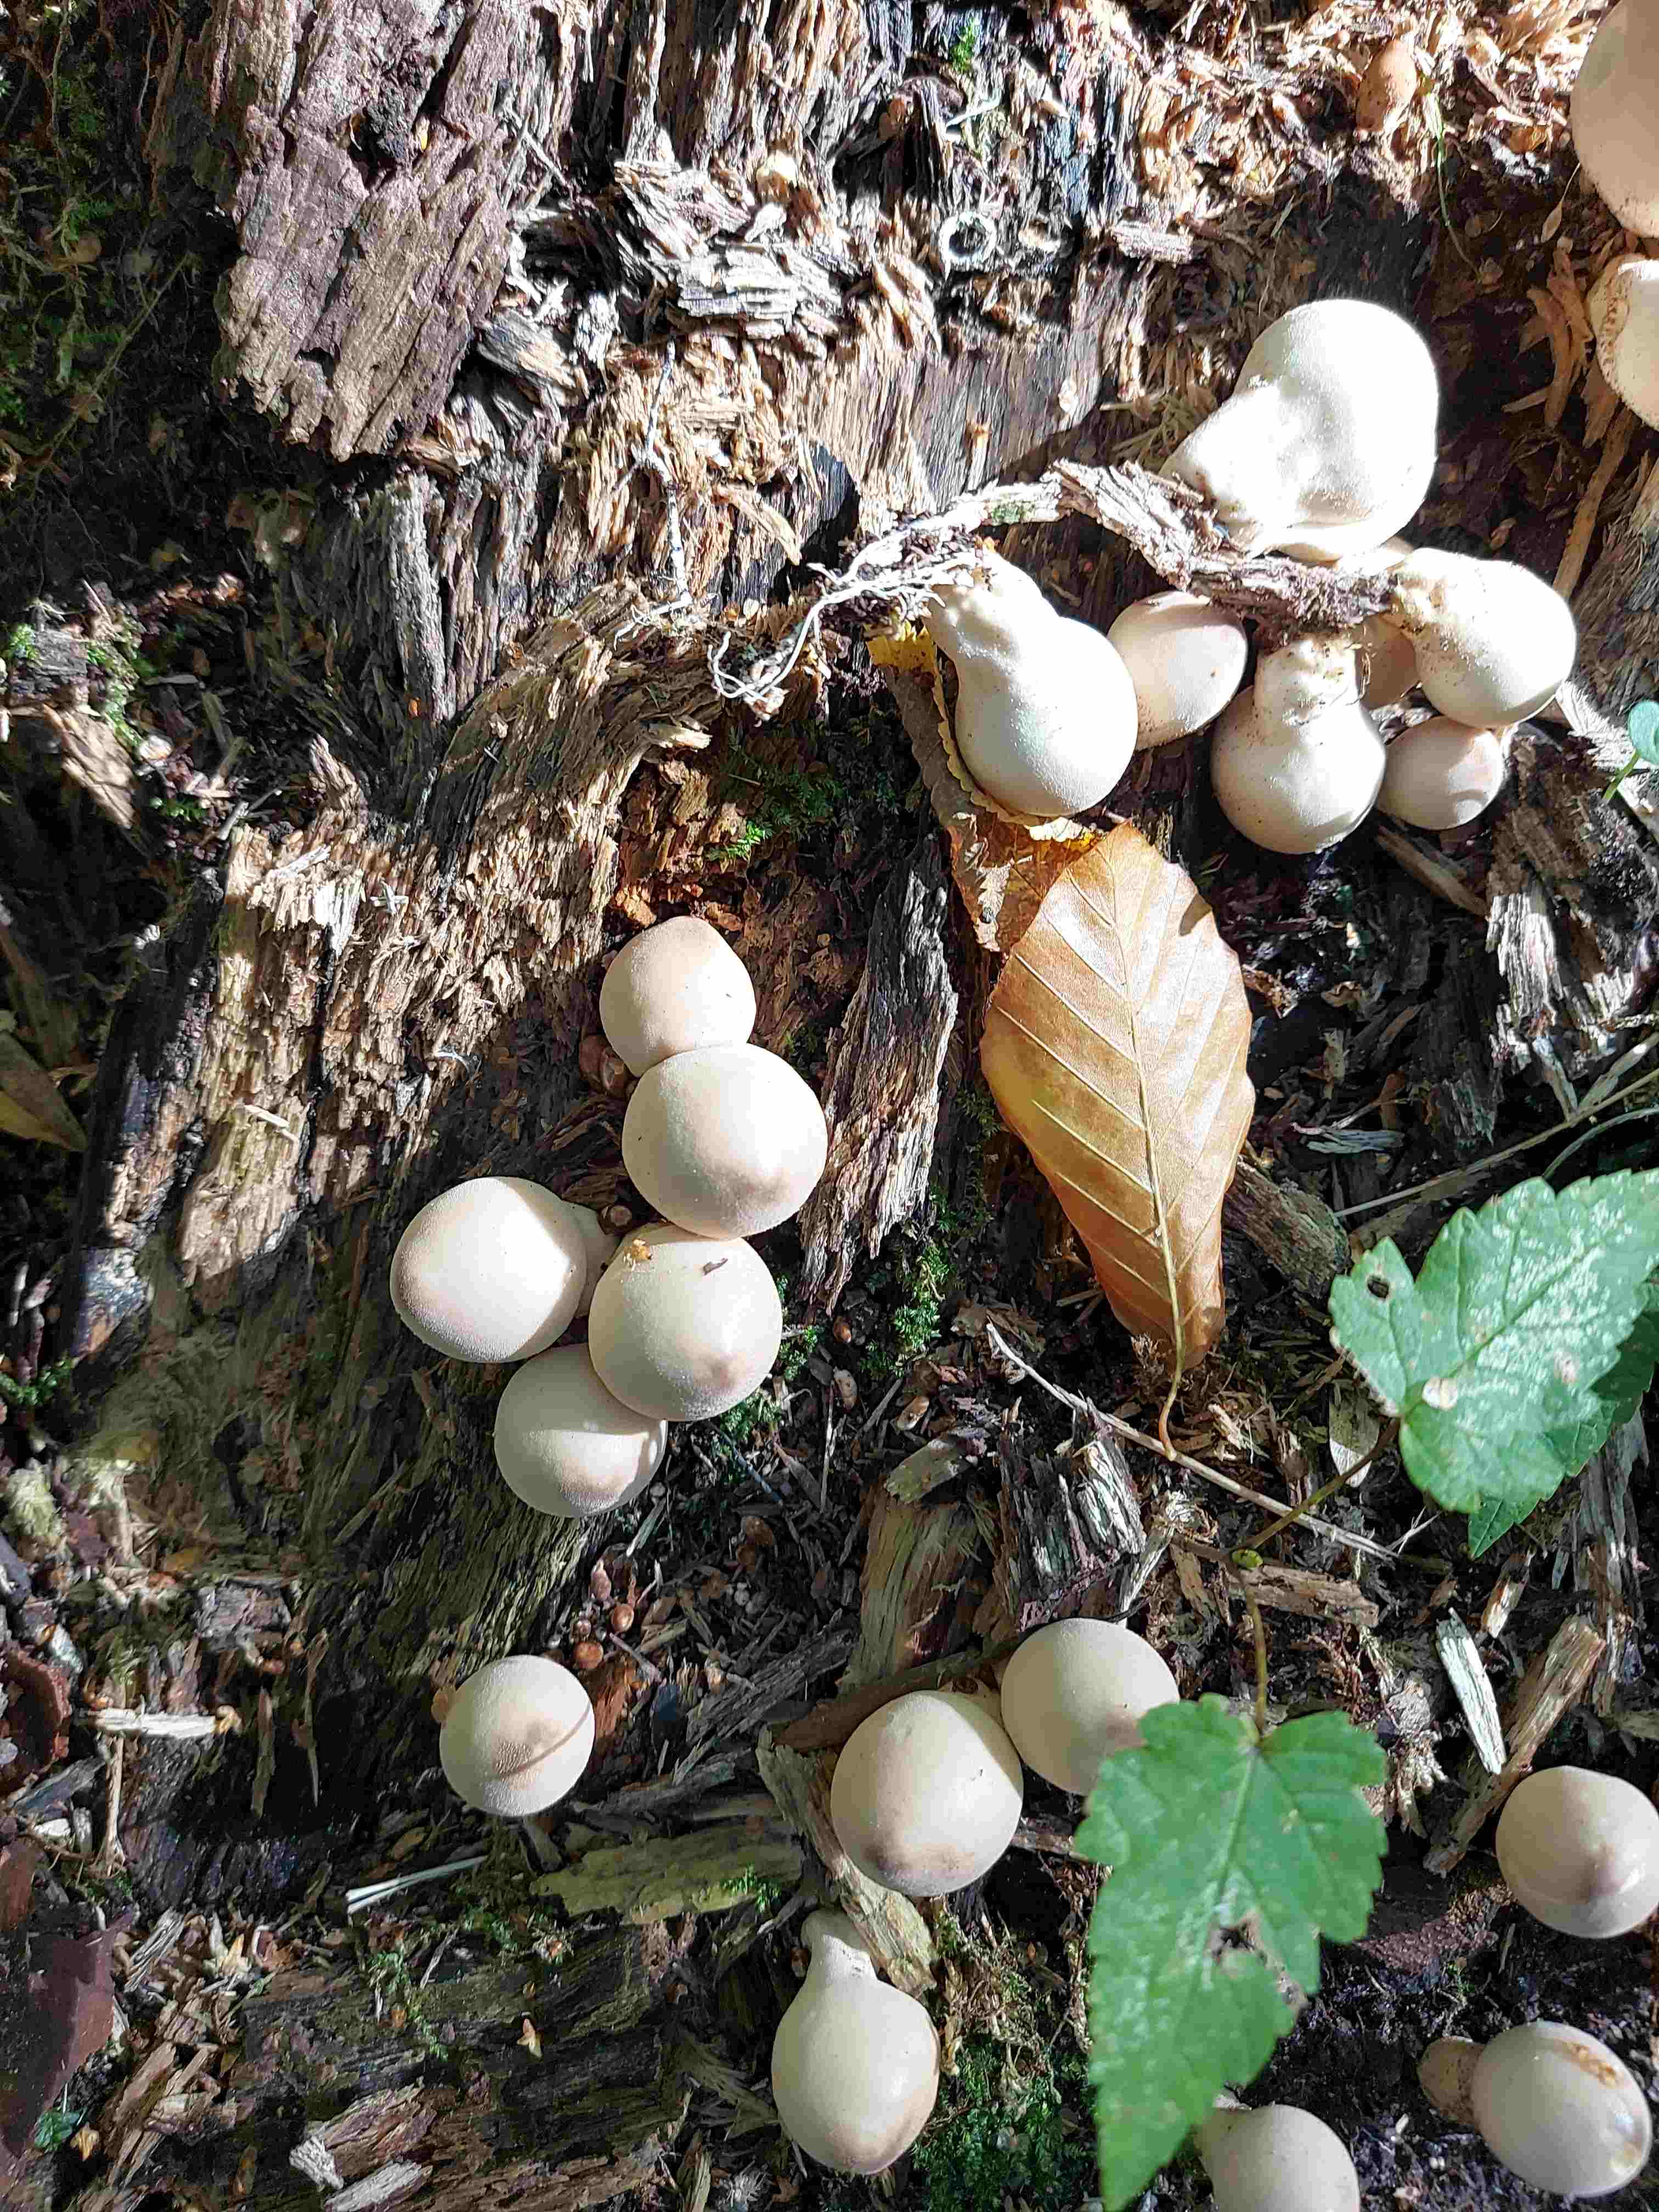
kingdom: Fungi
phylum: Basidiomycota
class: Agaricomycetes
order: Agaricales
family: Lycoperdaceae
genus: Apioperdon
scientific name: Apioperdon pyriforme
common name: pære-støvbold
